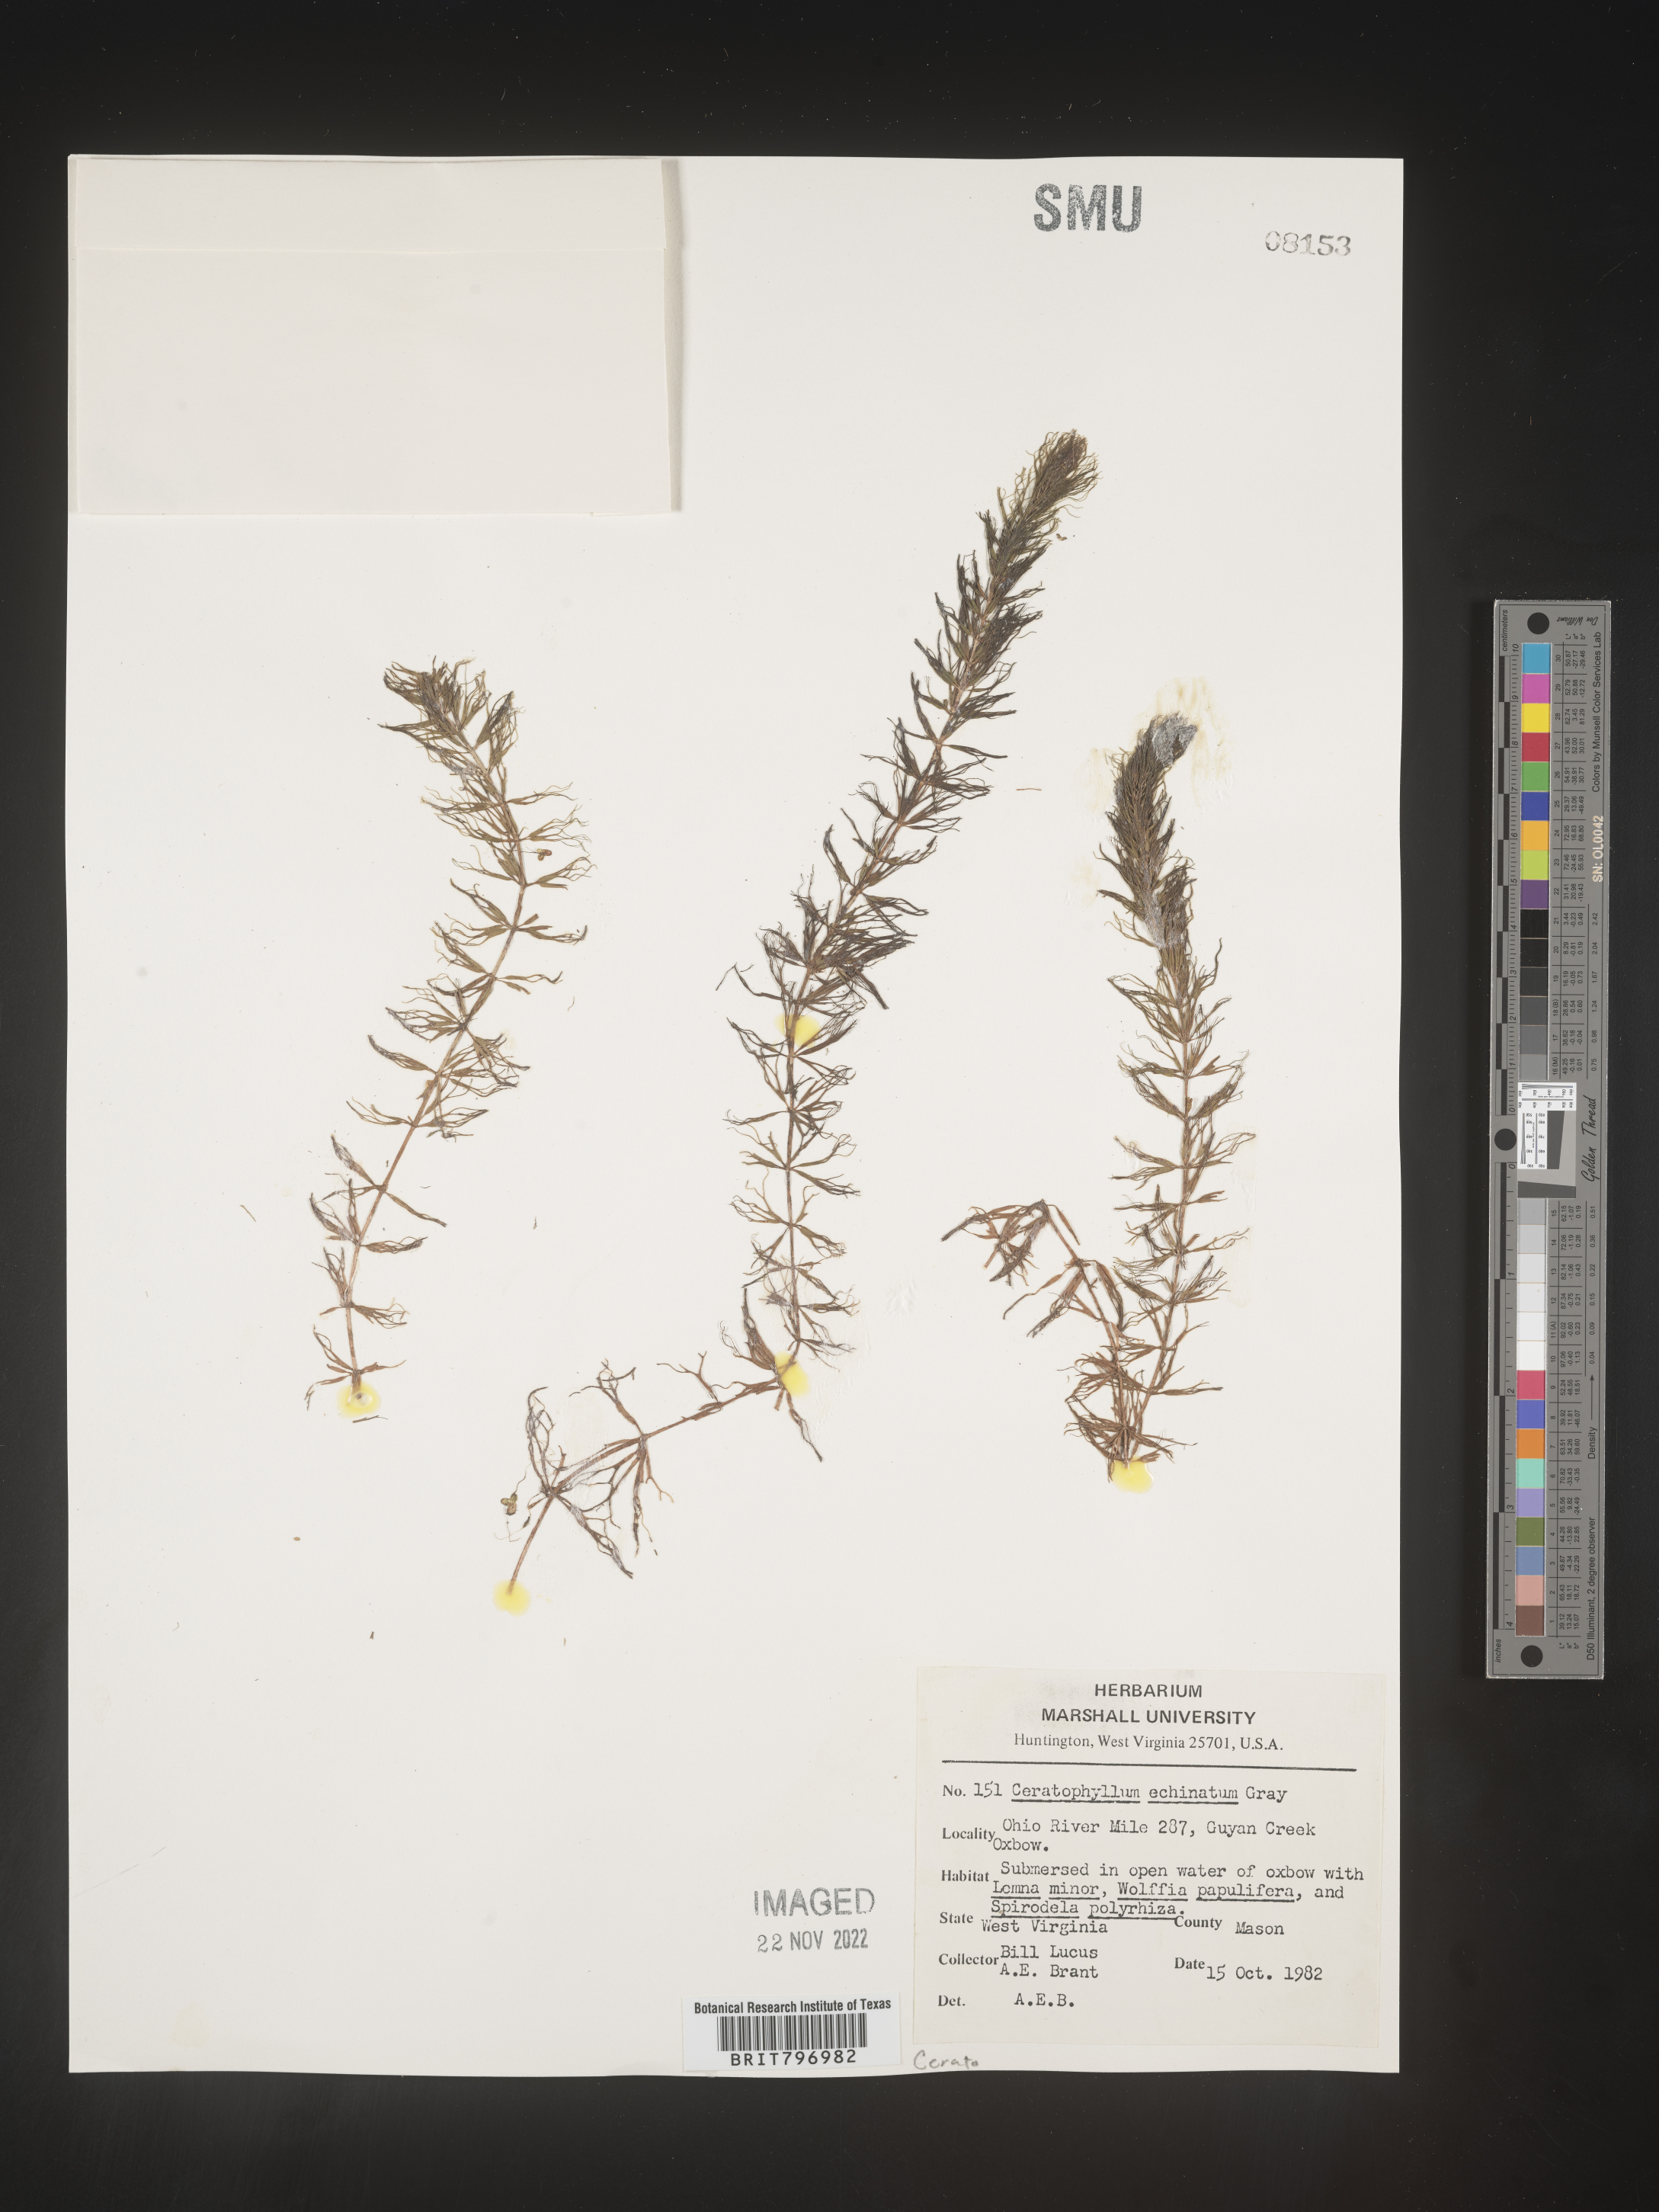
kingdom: Plantae
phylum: Tracheophyta
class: Magnoliopsida
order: Ceratophyllales
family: Ceratophyllaceae
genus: Ceratophyllum
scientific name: Ceratophyllum demersum
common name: Rigid hornwort
